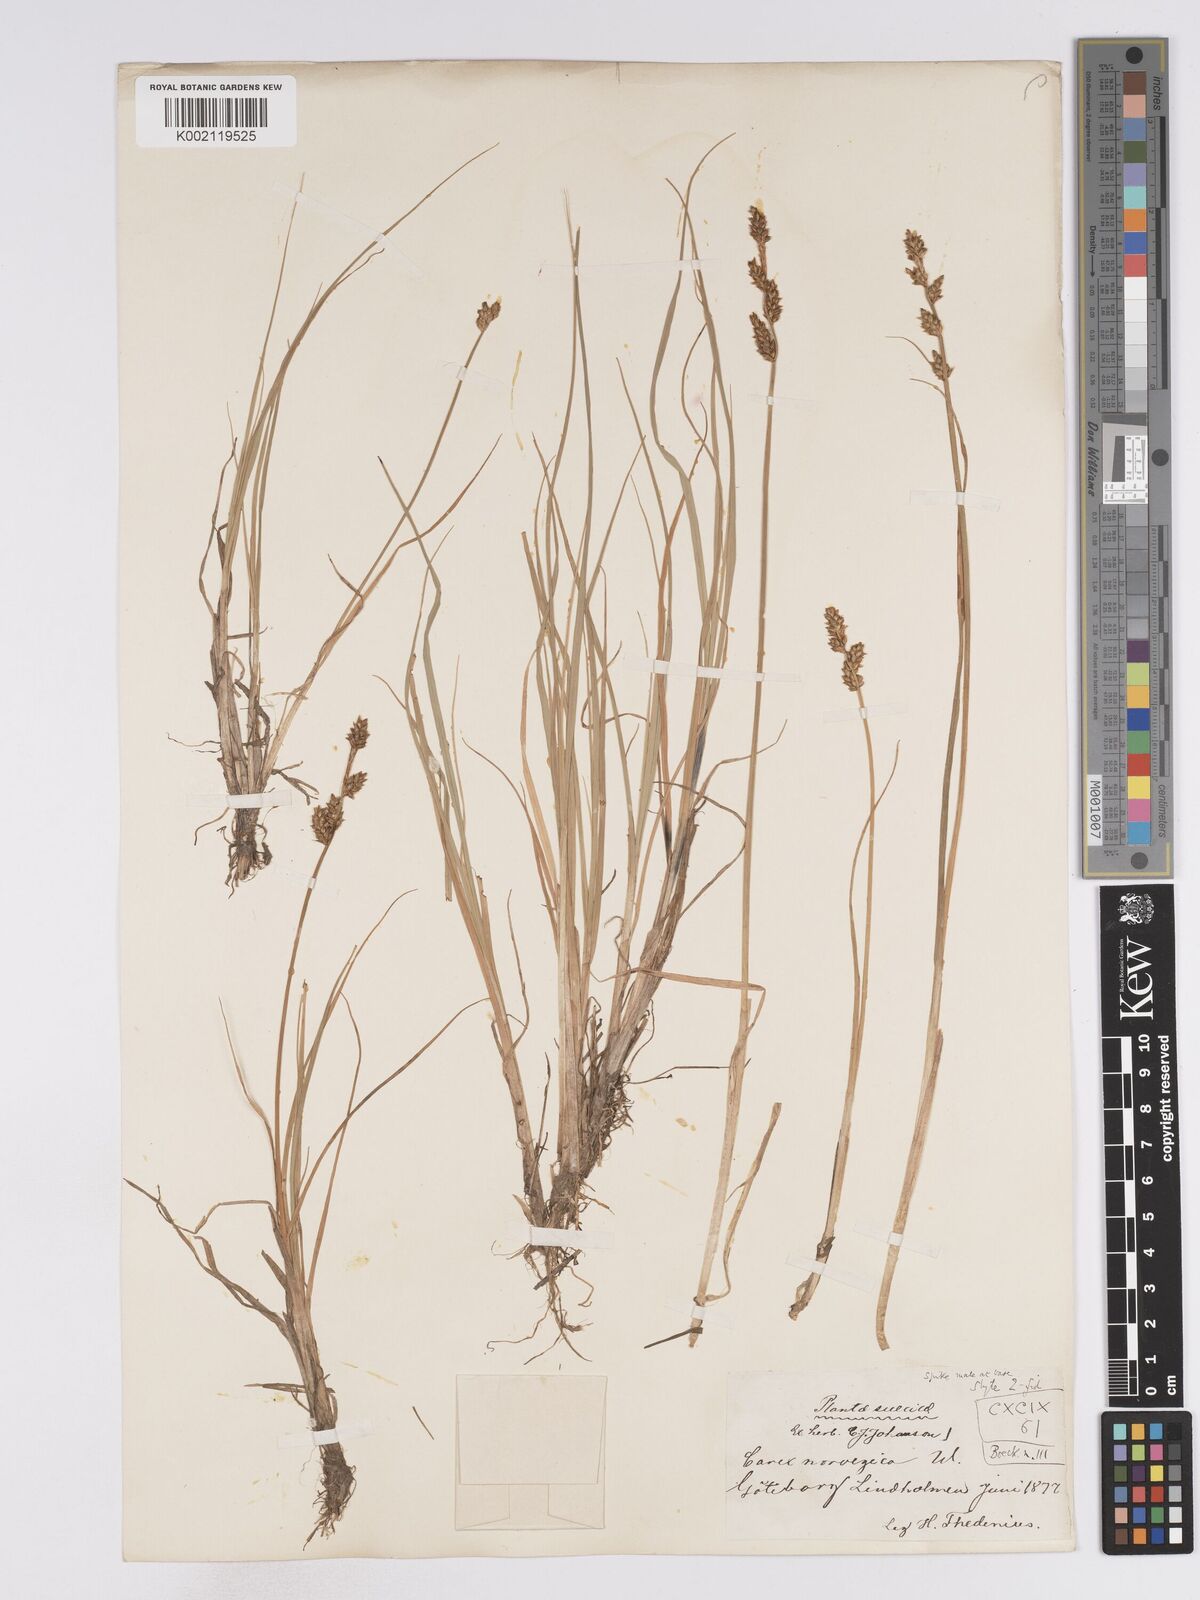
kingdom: Plantae
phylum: Tracheophyta
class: Liliopsida
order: Poales
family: Cyperaceae
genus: Carex
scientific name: Carex mackenziei
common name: Mackenzie's sedge
